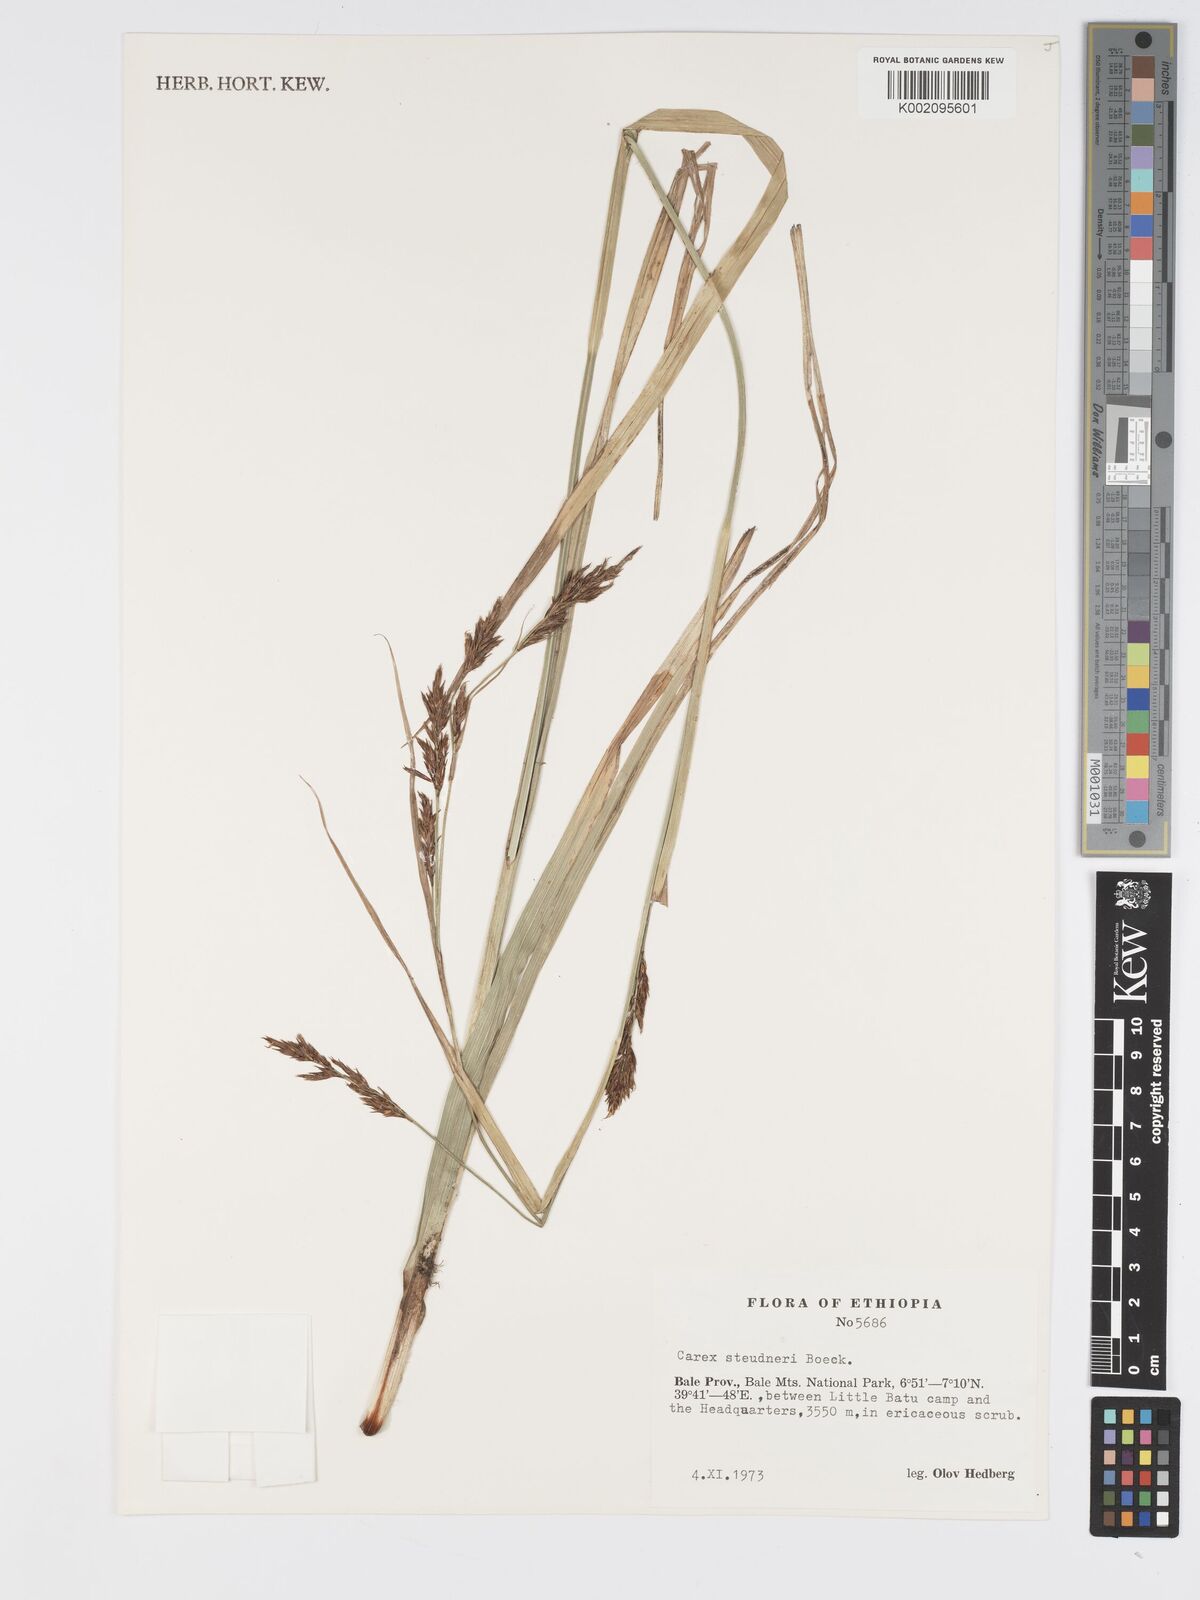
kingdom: Plantae
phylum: Tracheophyta
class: Liliopsida
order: Poales
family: Cyperaceae
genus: Carex
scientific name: Carex steudneri
